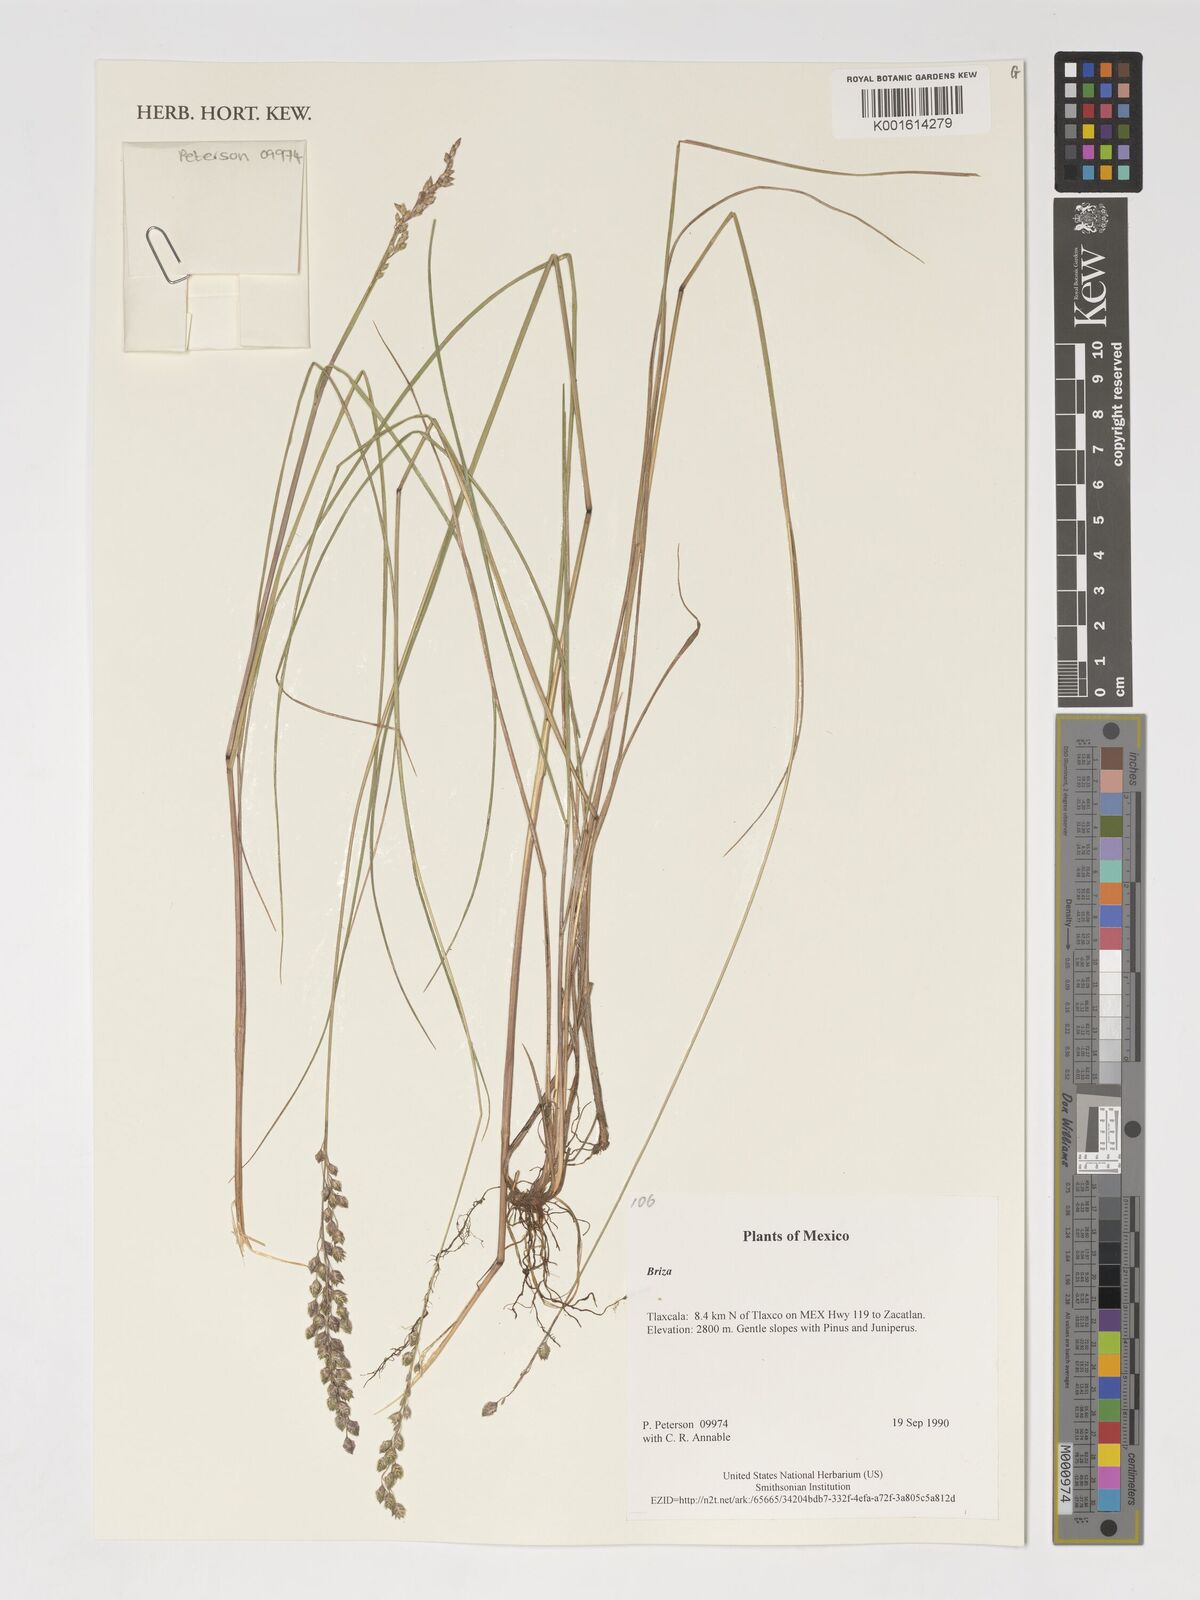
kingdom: Plantae
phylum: Tracheophyta
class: Liliopsida
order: Poales
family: Poaceae
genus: Briza
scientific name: Briza
